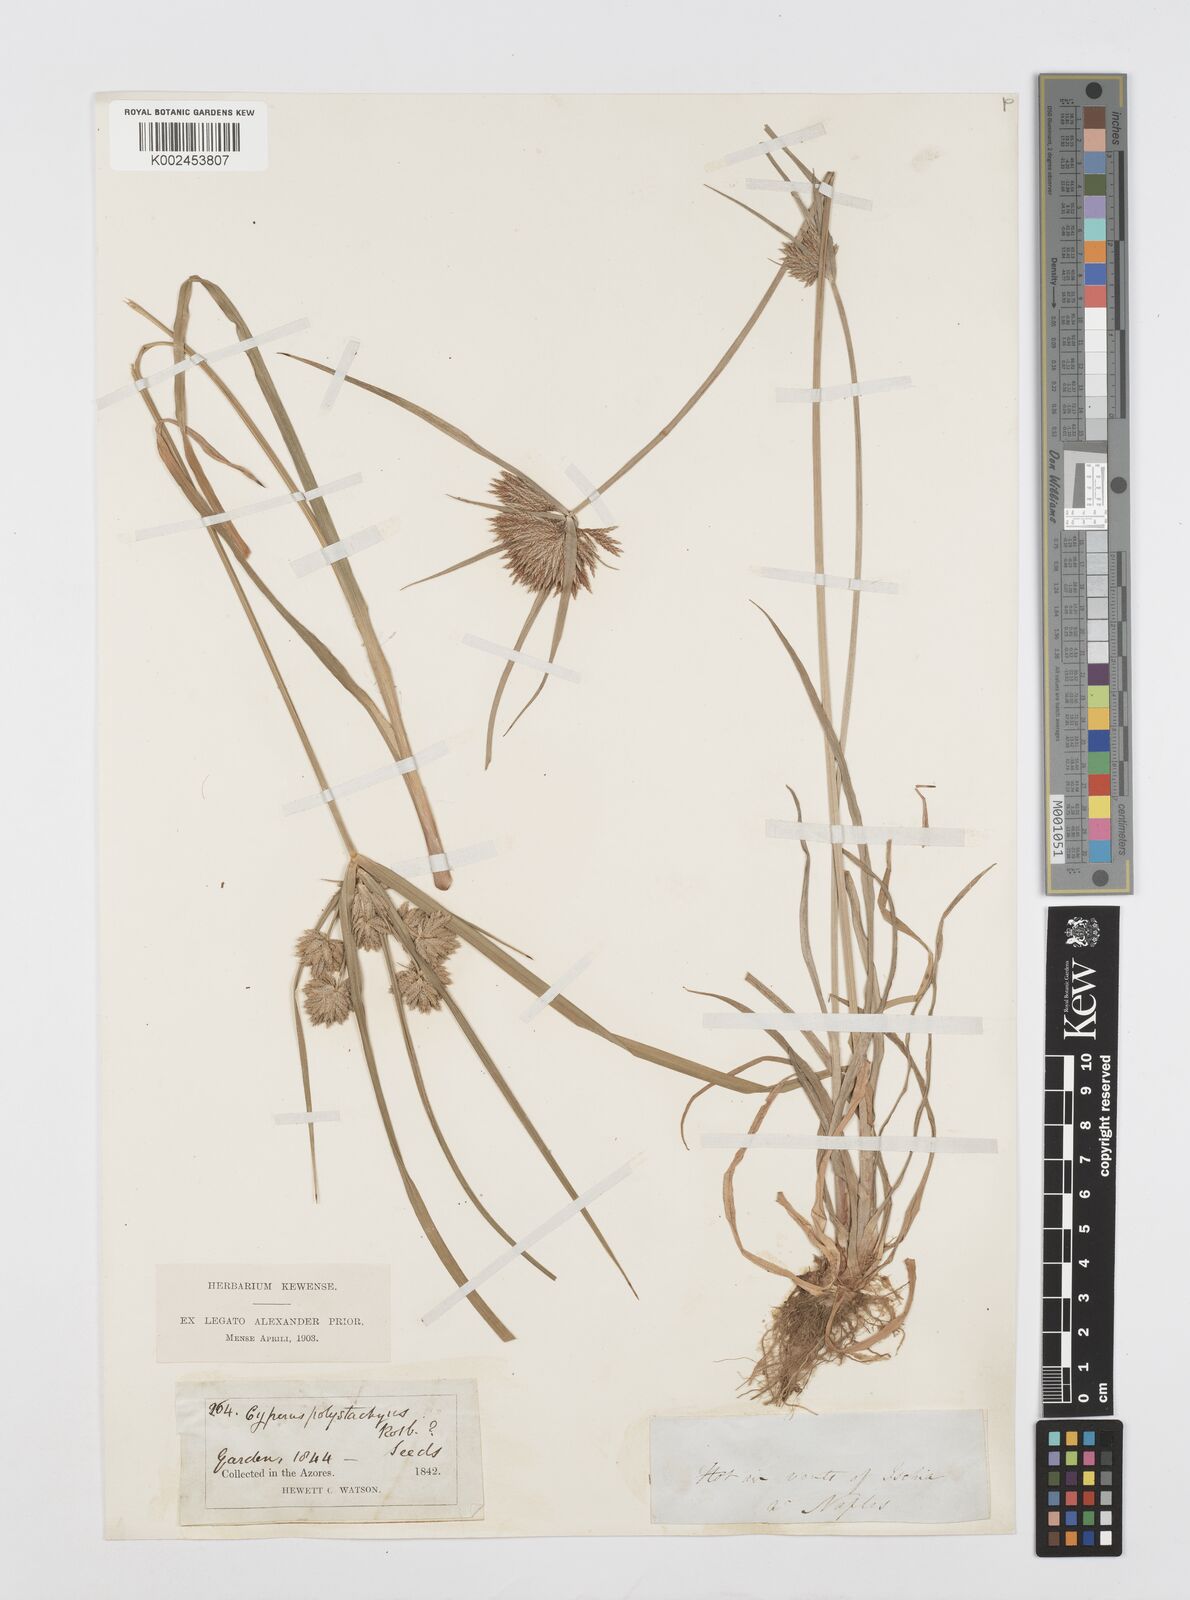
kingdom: Plantae
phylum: Tracheophyta
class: Liliopsida
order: Poales
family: Cyperaceae
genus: Cyperus
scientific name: Cyperus polystachyos
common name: Bunchy flat sedge
